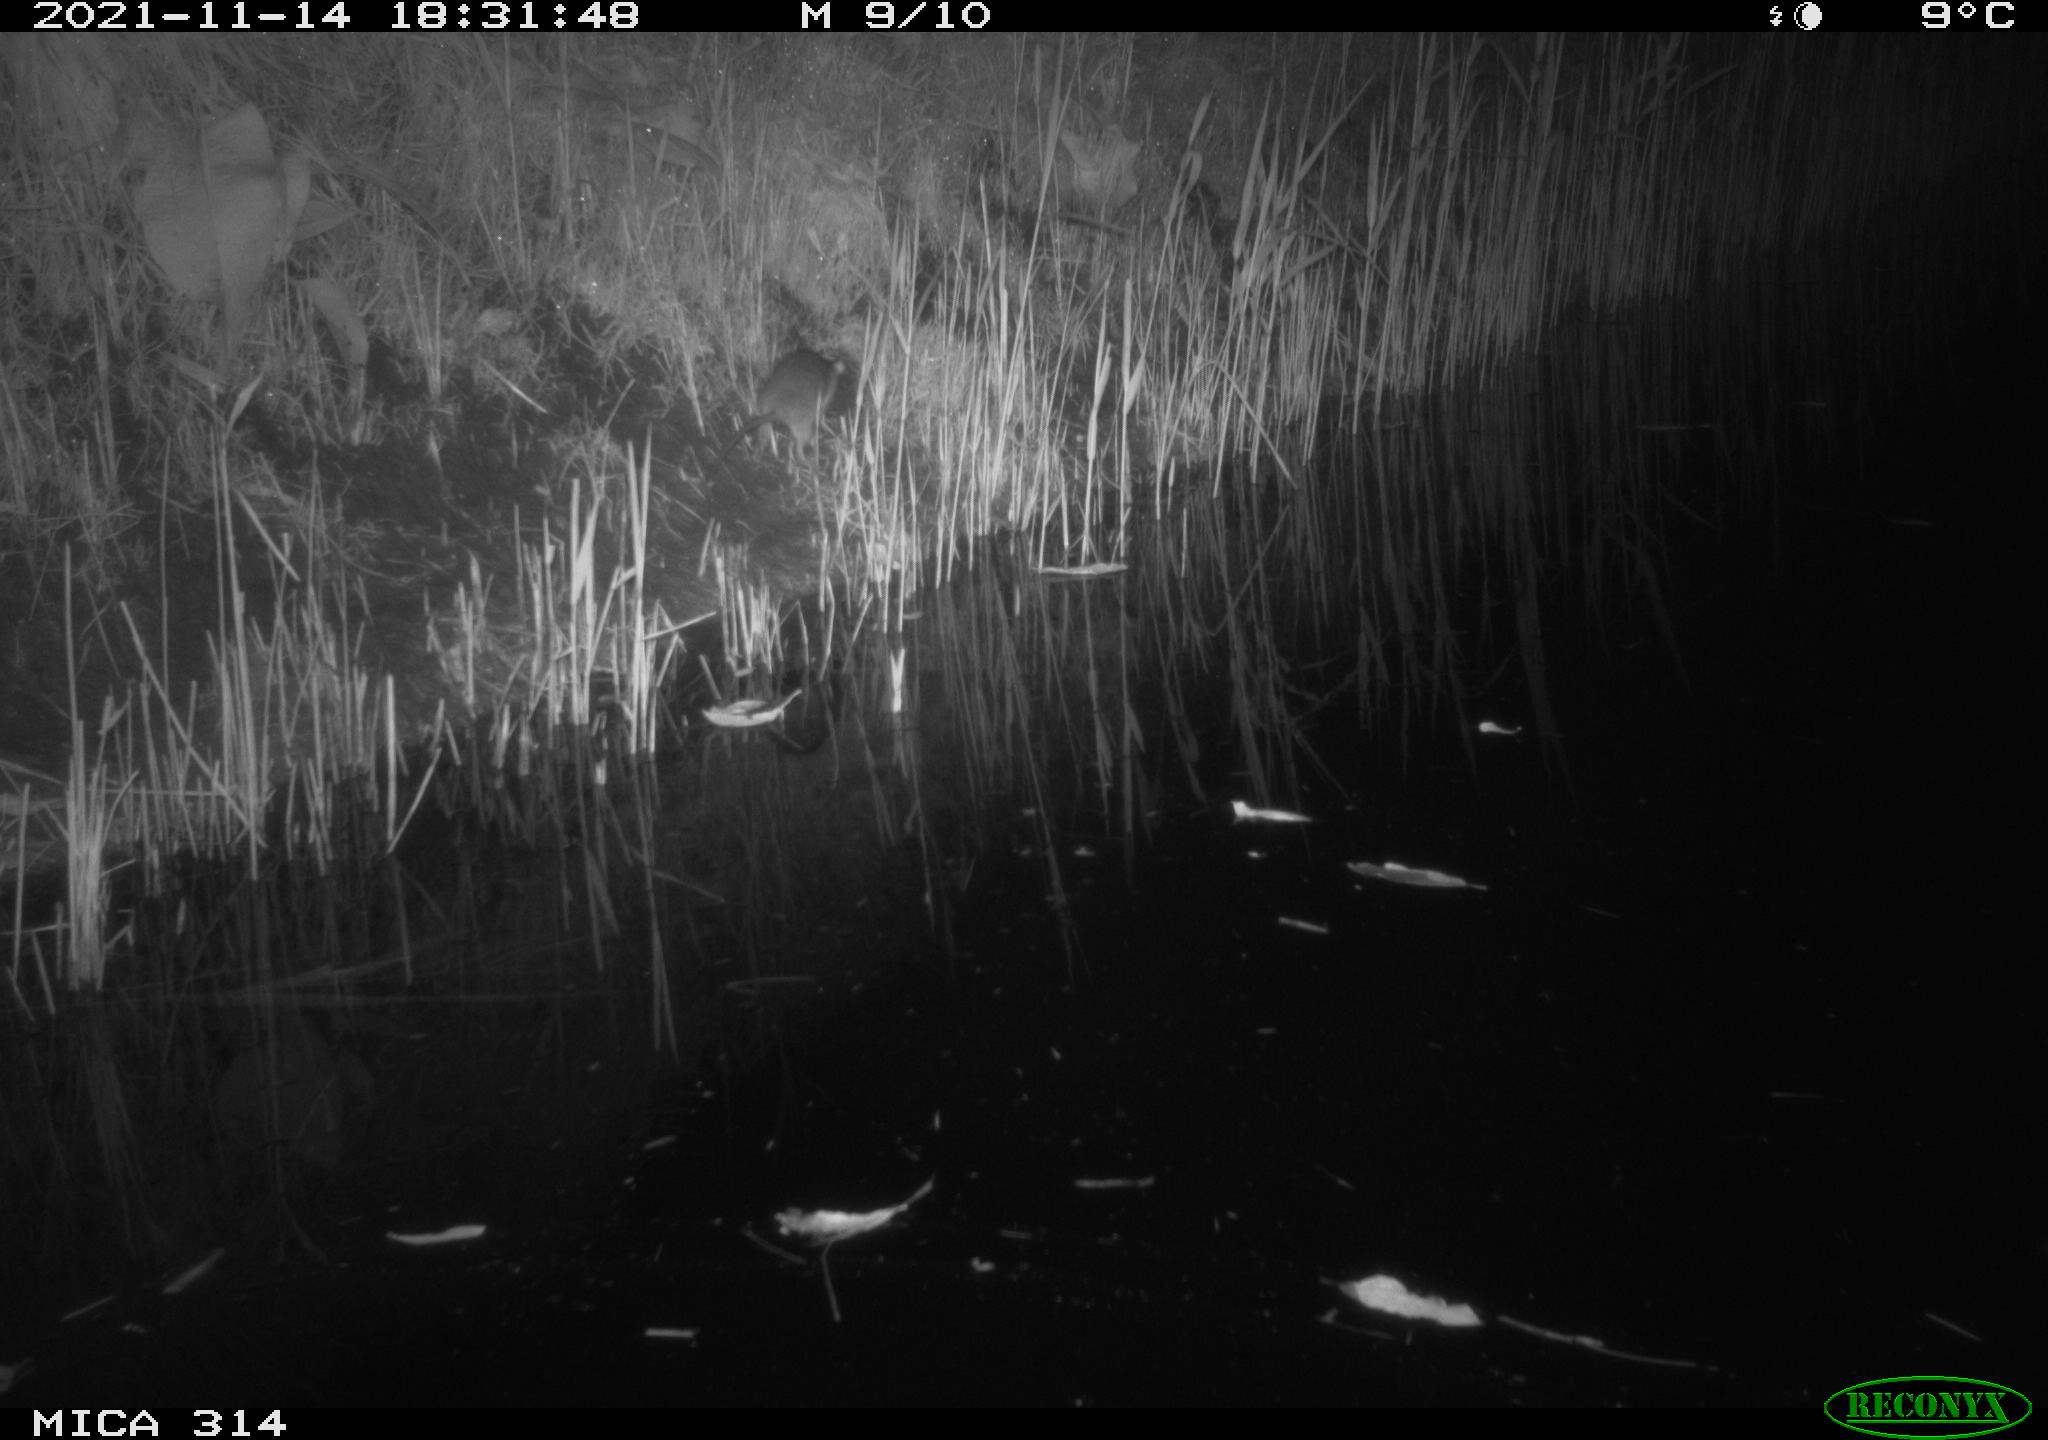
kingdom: Animalia
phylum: Chordata
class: Mammalia
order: Rodentia
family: Muridae
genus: Rattus
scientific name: Rattus norvegicus
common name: Brown rat
